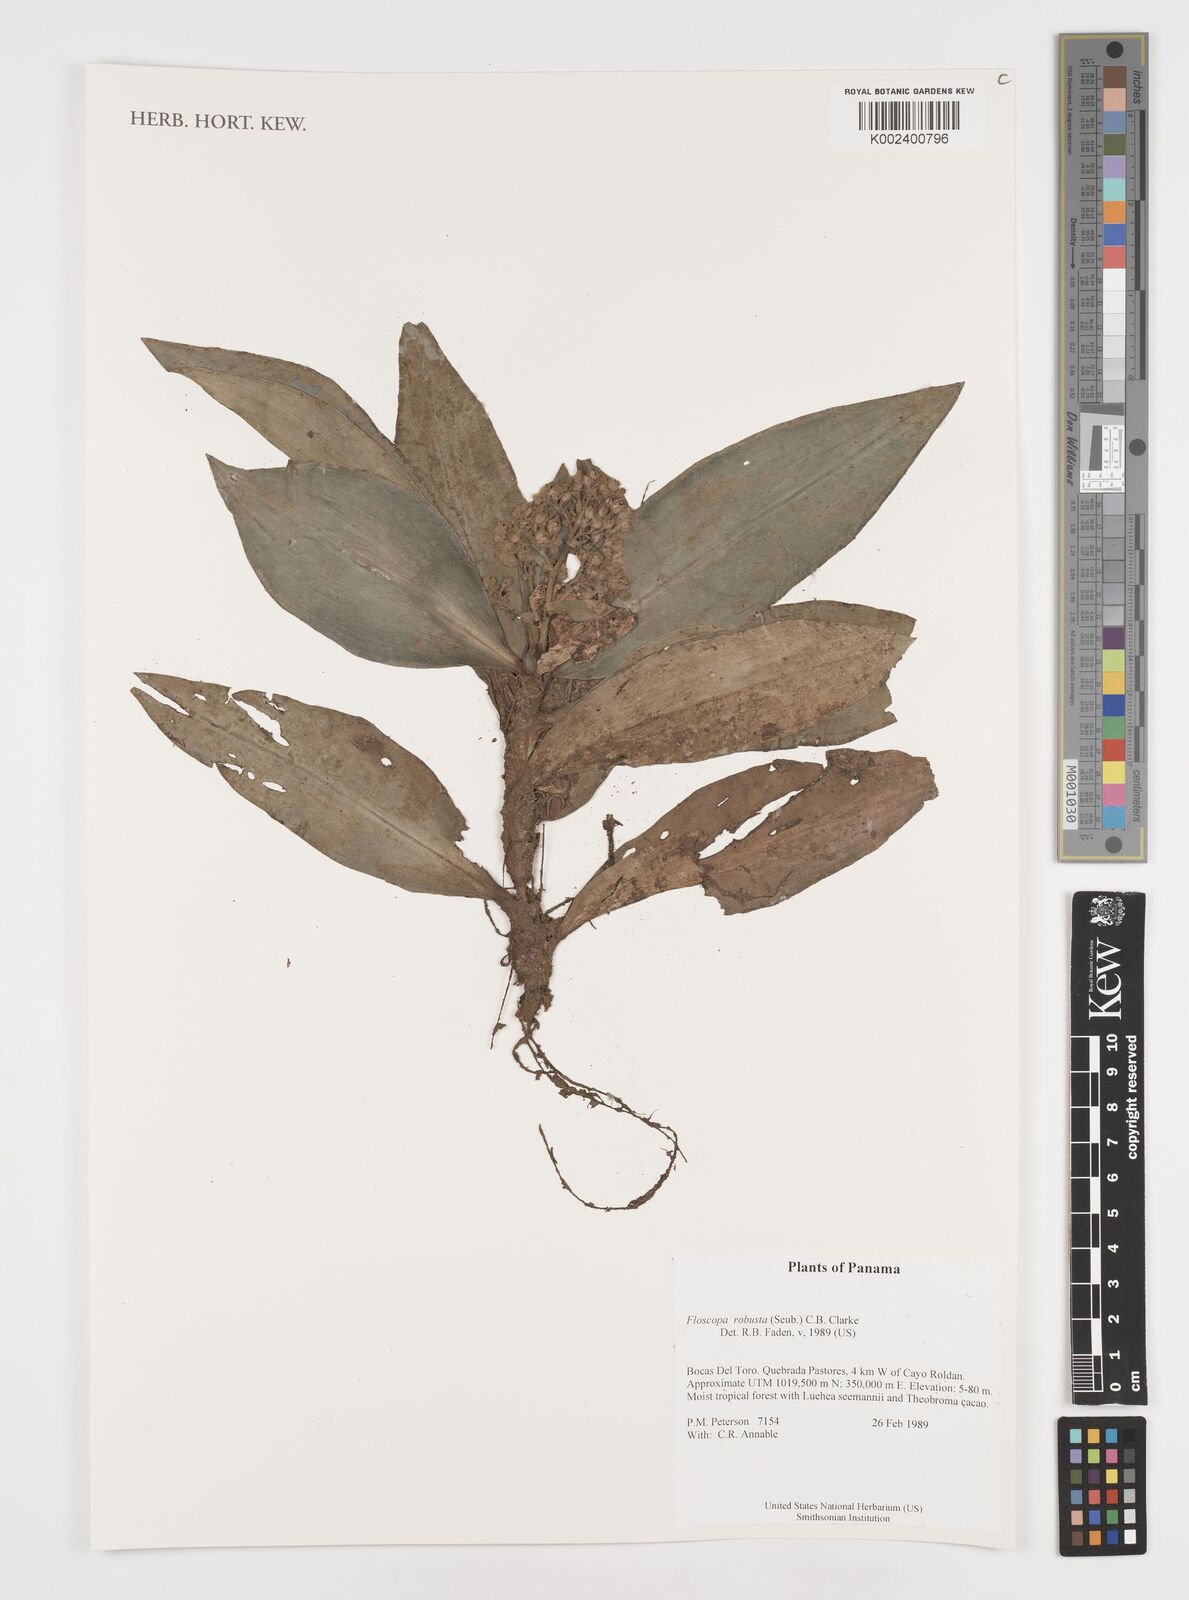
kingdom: Plantae
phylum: Tracheophyta
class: Liliopsida
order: Commelinales
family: Commelinaceae
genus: Floscopa
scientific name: Floscopa robusta
